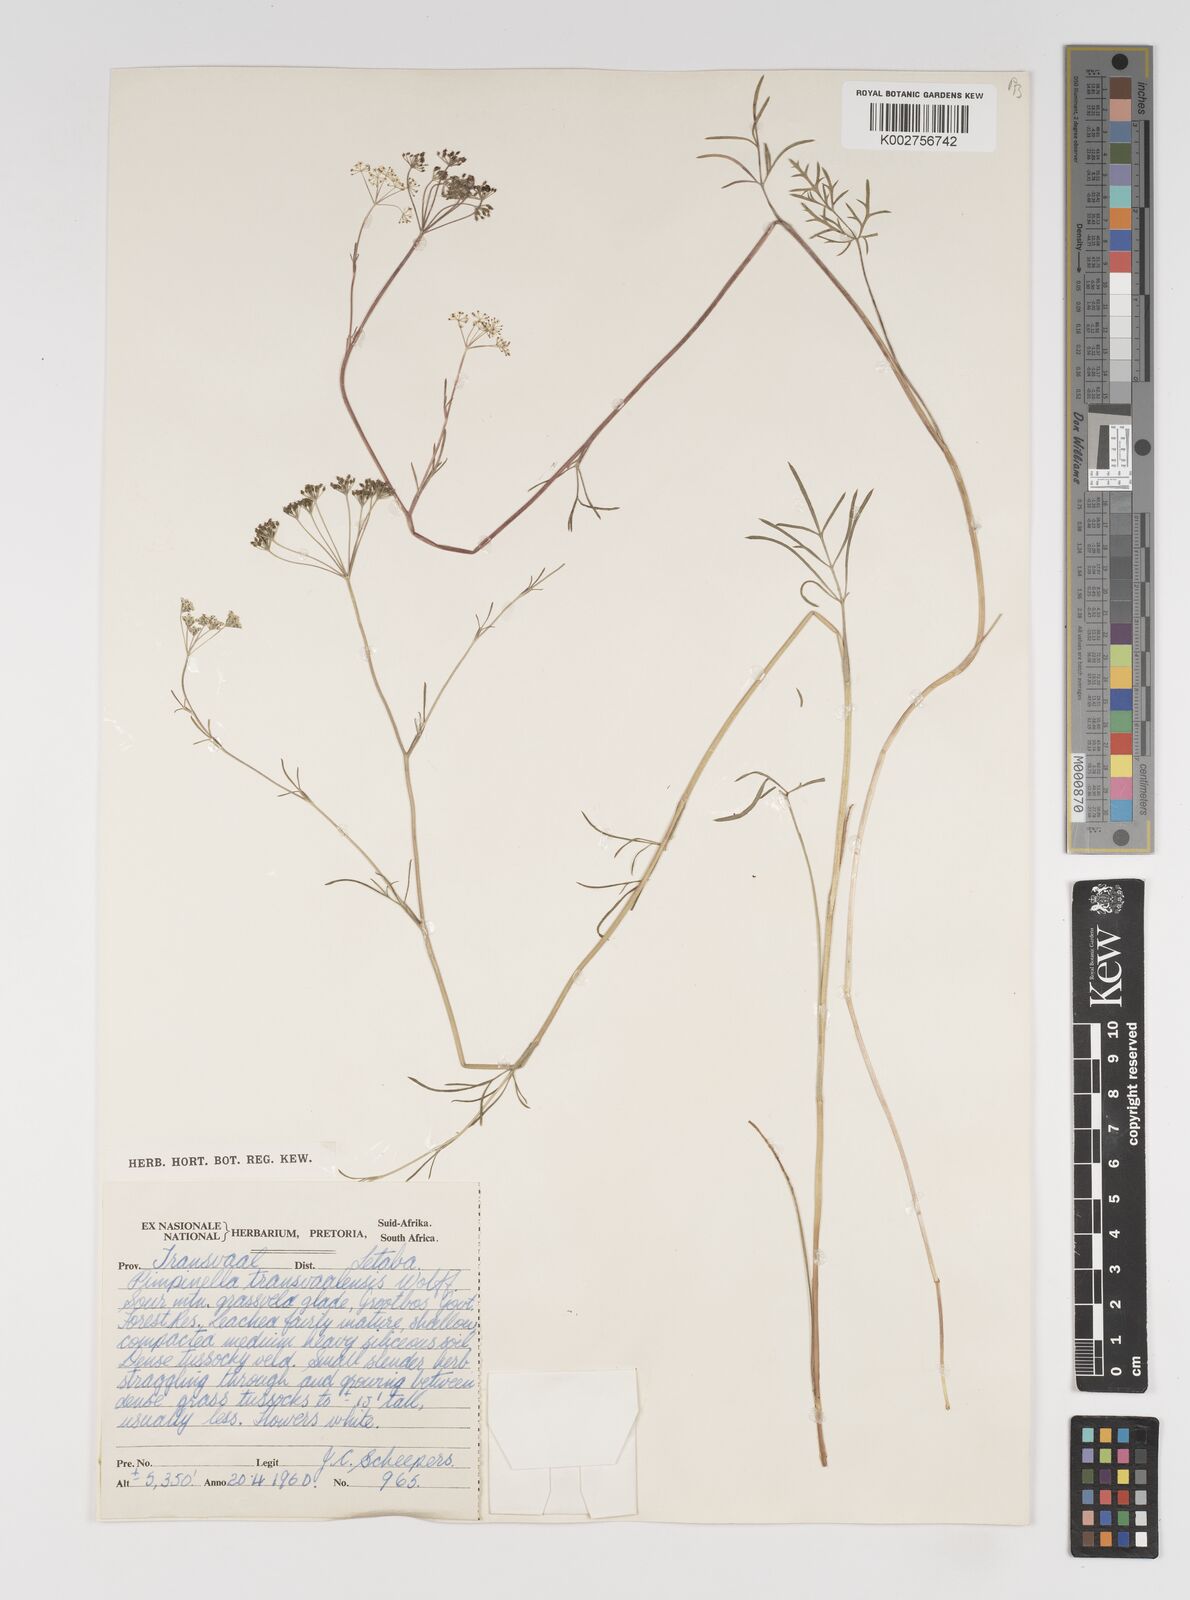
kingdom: Plantae
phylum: Tracheophyta
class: Magnoliopsida
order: Apiales
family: Apiaceae
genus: Pimpinella
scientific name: Pimpinella transvaalensis
